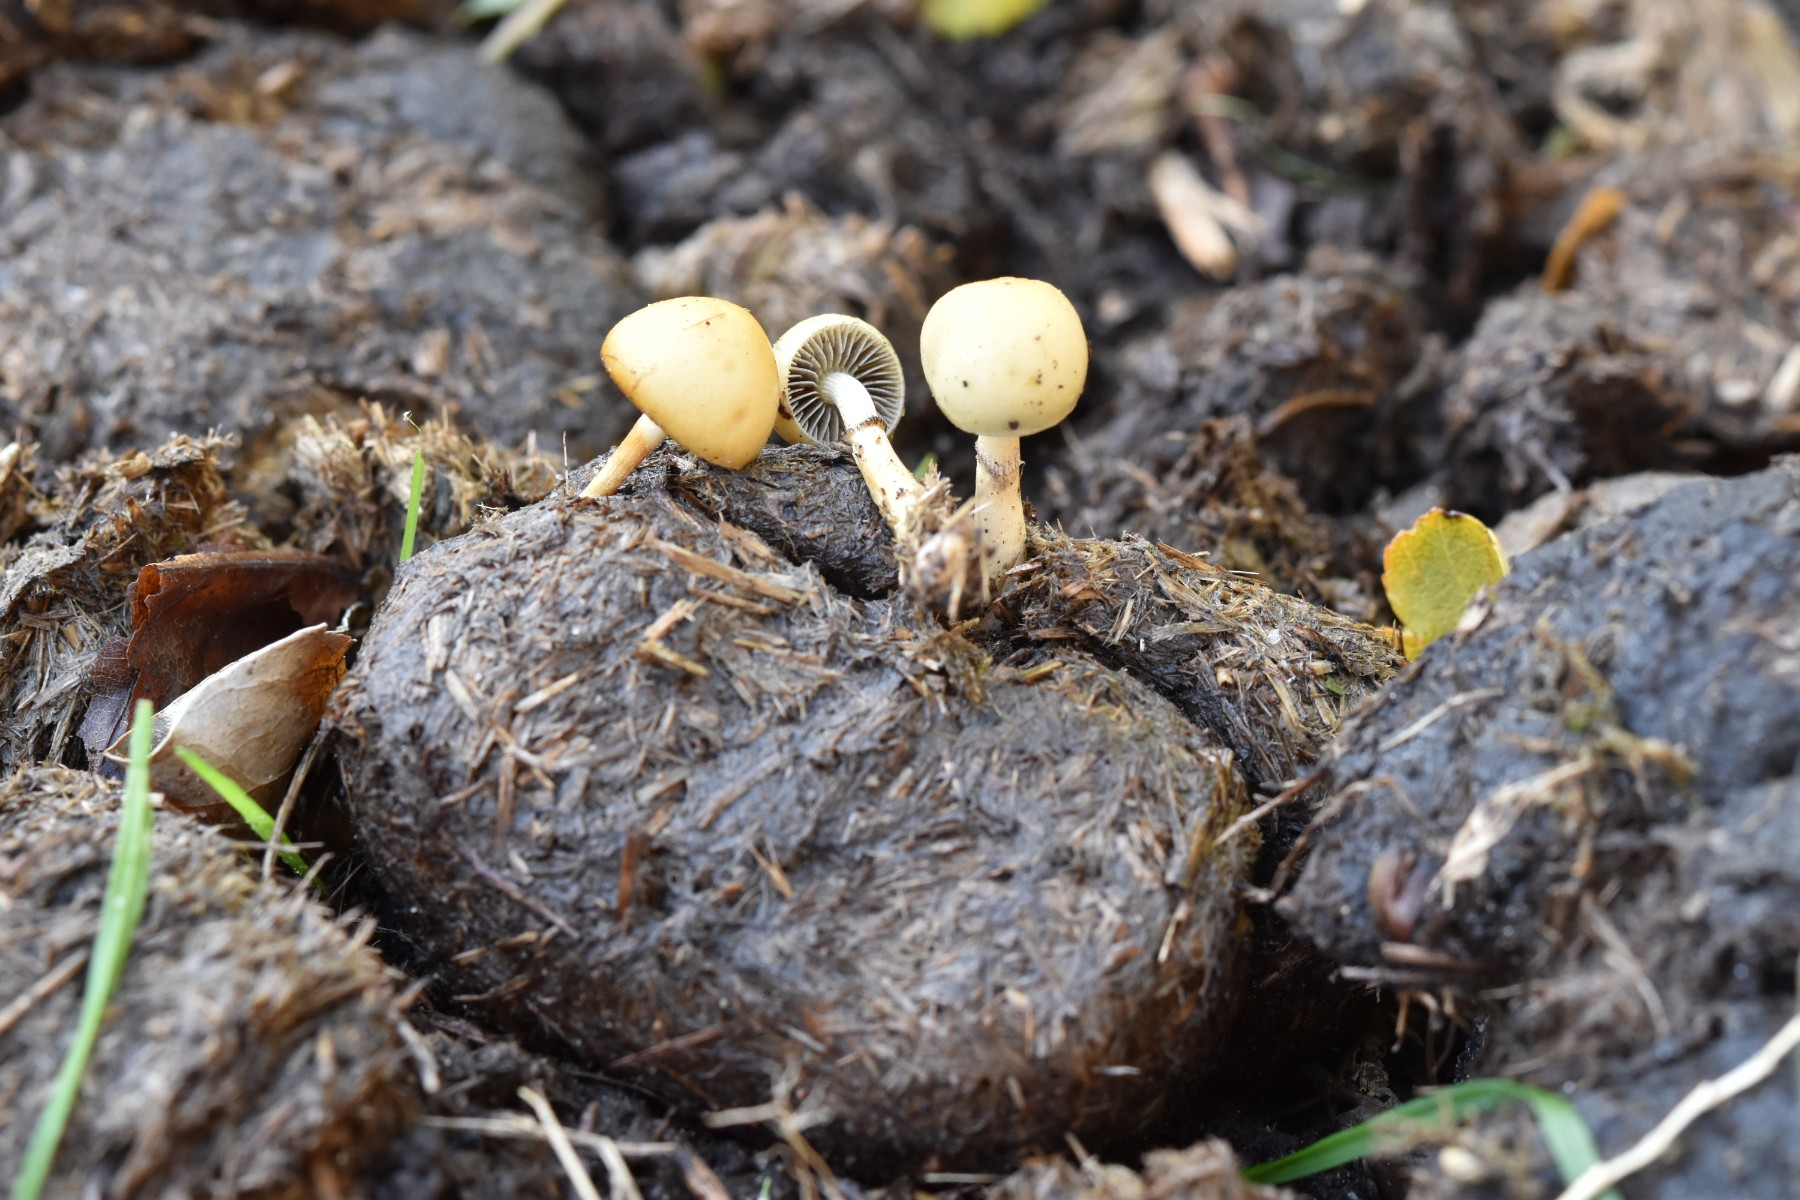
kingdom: Fungi
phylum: Basidiomycota
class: Agaricomycetes
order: Agaricales
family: Strophariaceae
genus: Protostropharia
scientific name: Protostropharia semiglobata
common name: halvkugleformet bredblad
